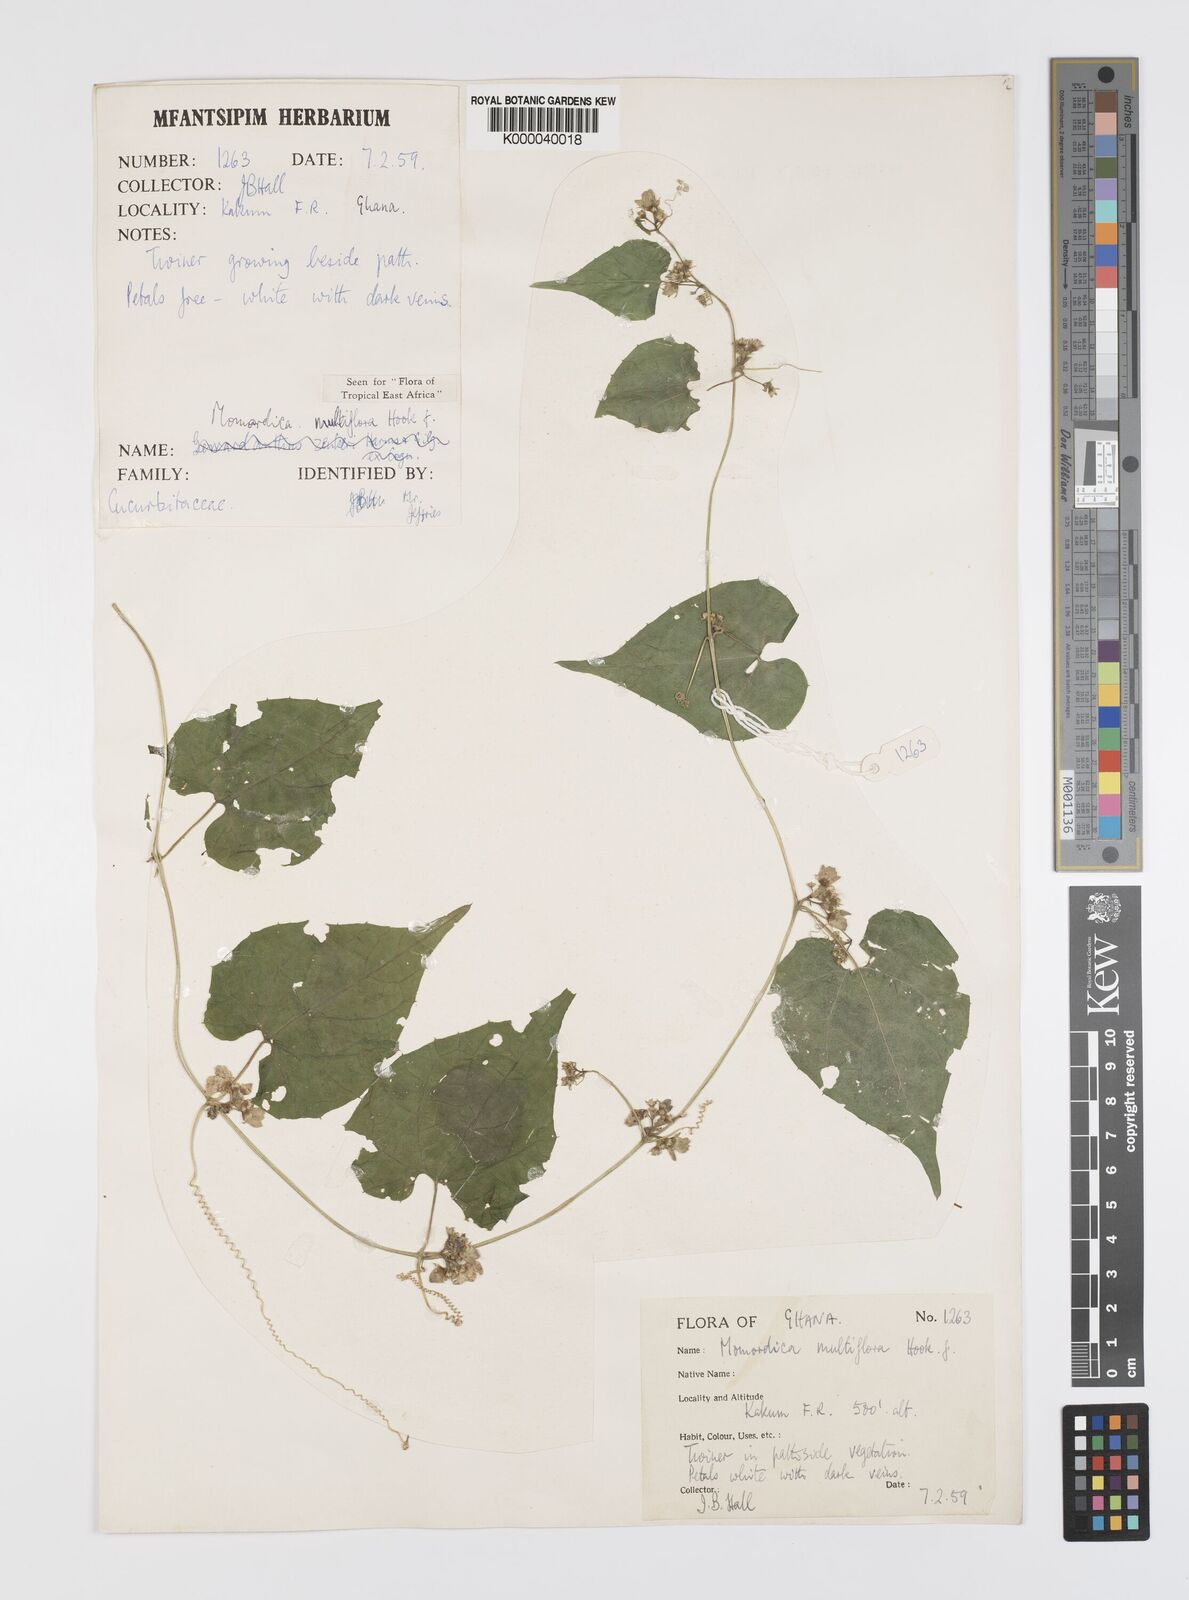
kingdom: Plantae
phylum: Tracheophyta
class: Magnoliopsida
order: Cucurbitales
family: Cucurbitaceae
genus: Momordica
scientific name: Momordica multiflora
